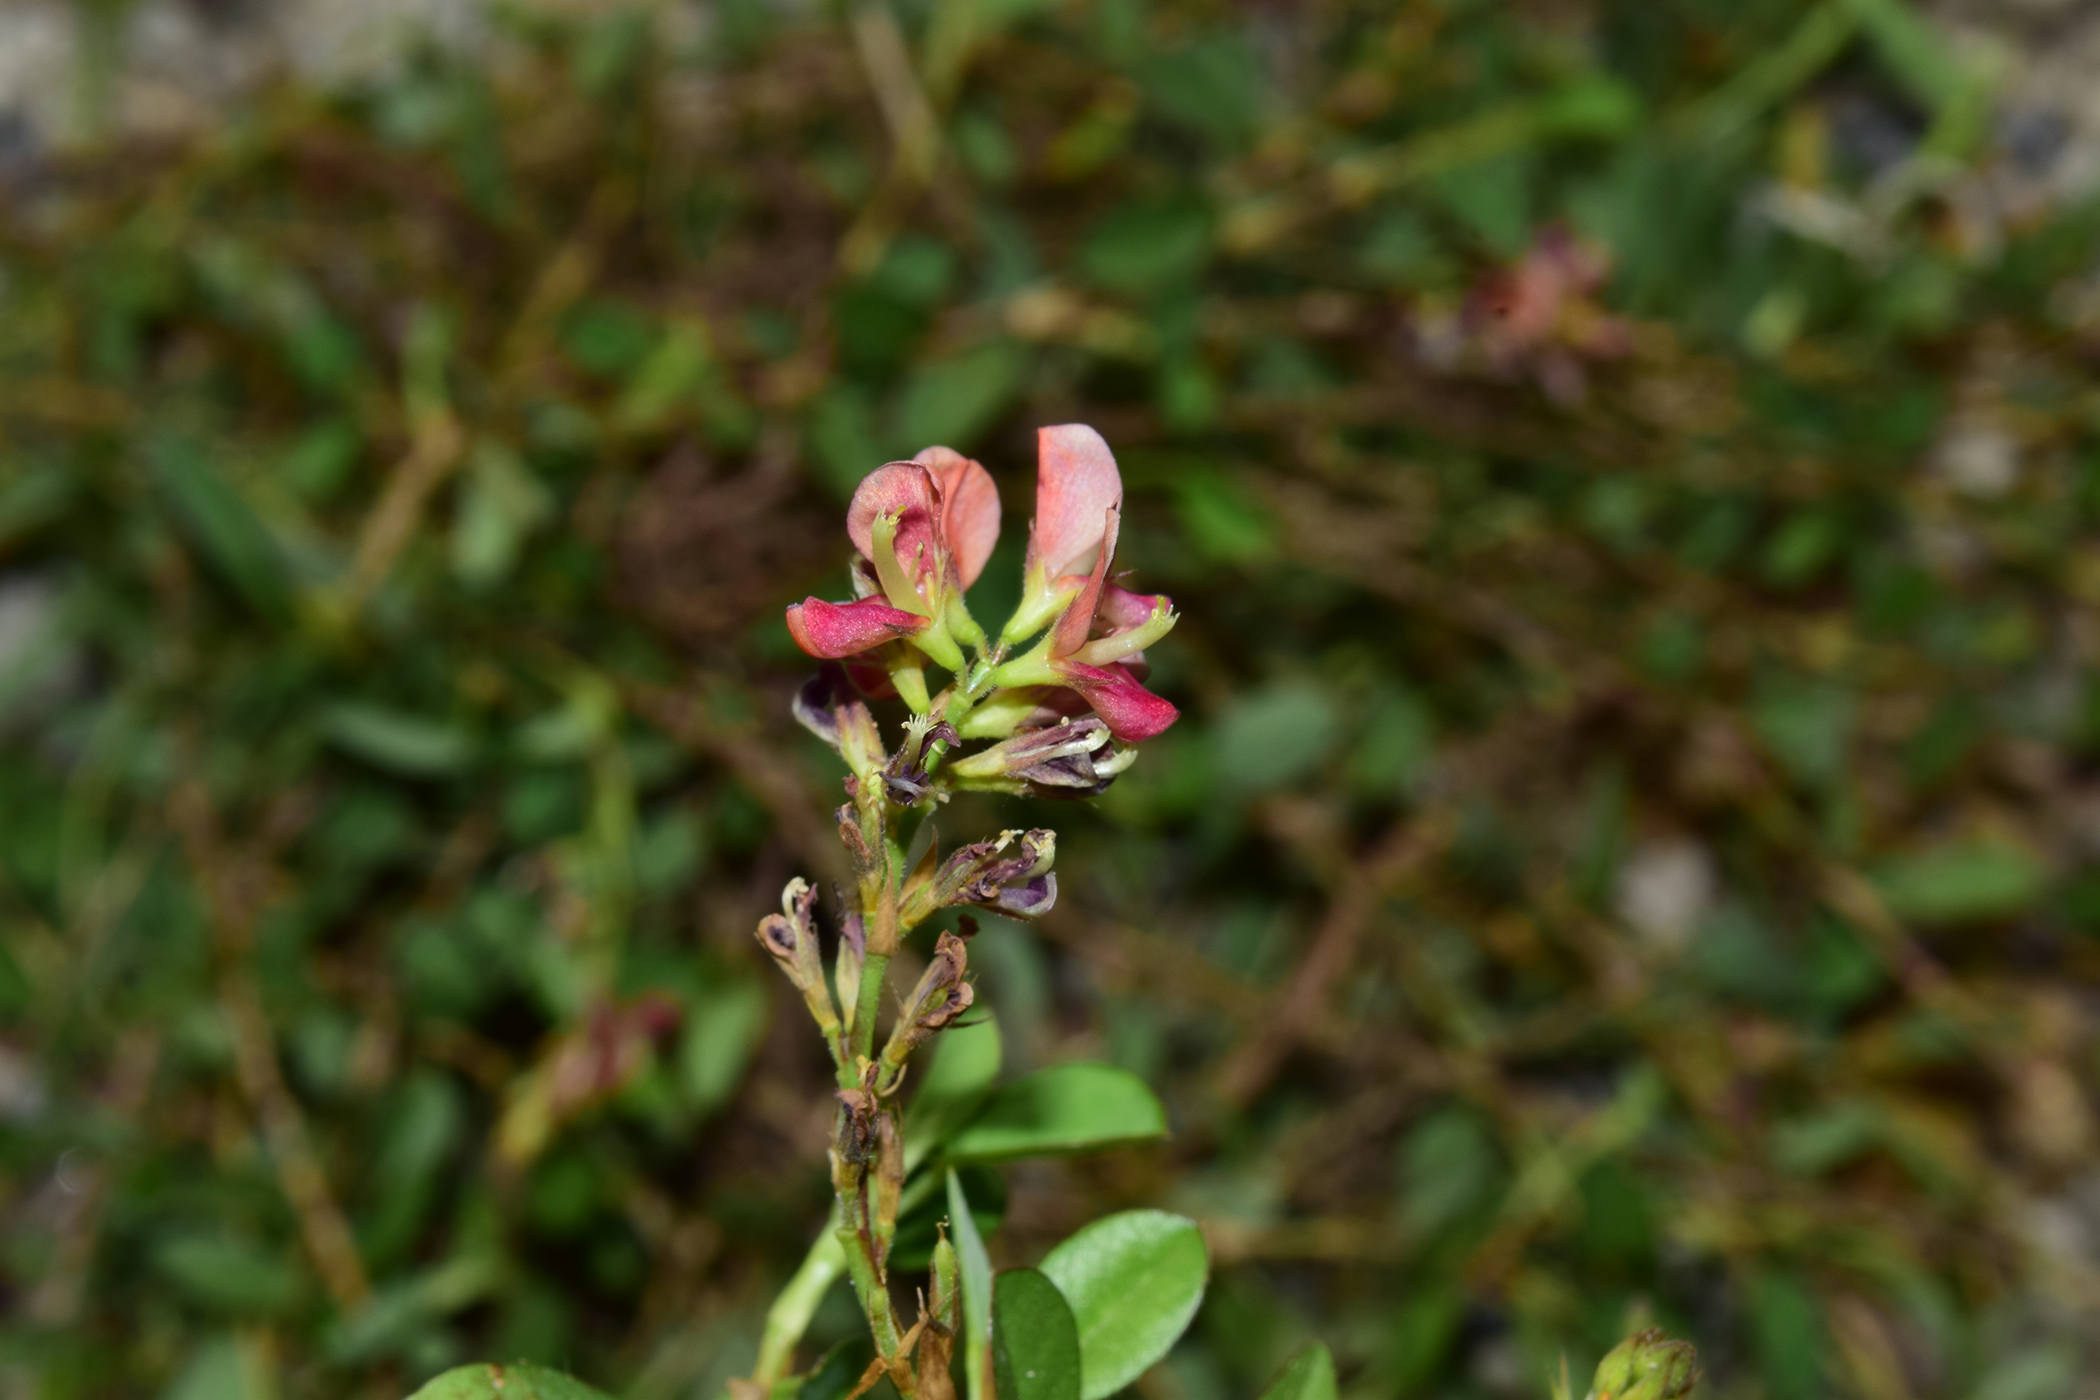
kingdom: Plantae
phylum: Tracheophyta
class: Magnoliopsida
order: Fabales
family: Fabaceae
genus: Alysicarpus
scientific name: Alysicarpus vaginalis
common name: White moneywort
